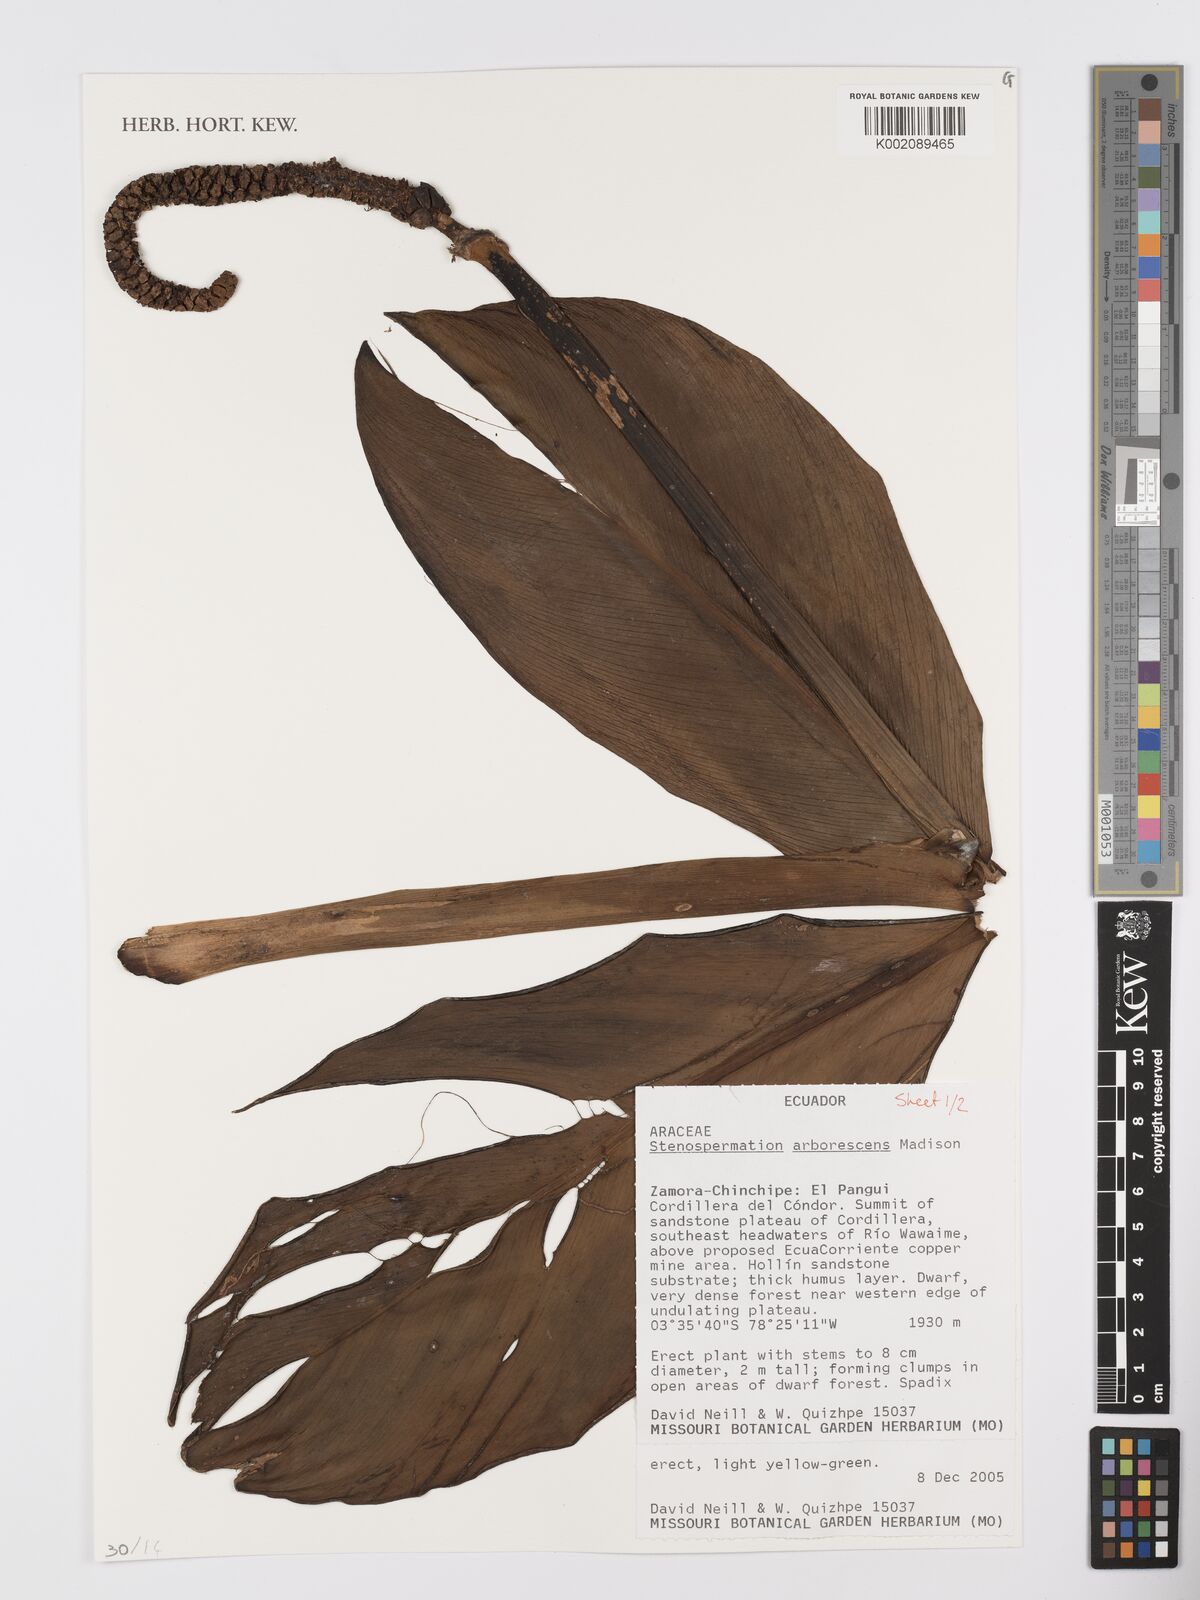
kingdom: Plantae
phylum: Tracheophyta
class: Liliopsida
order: Alismatales
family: Araceae
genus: Stenospermation
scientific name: Stenospermation arborescens
